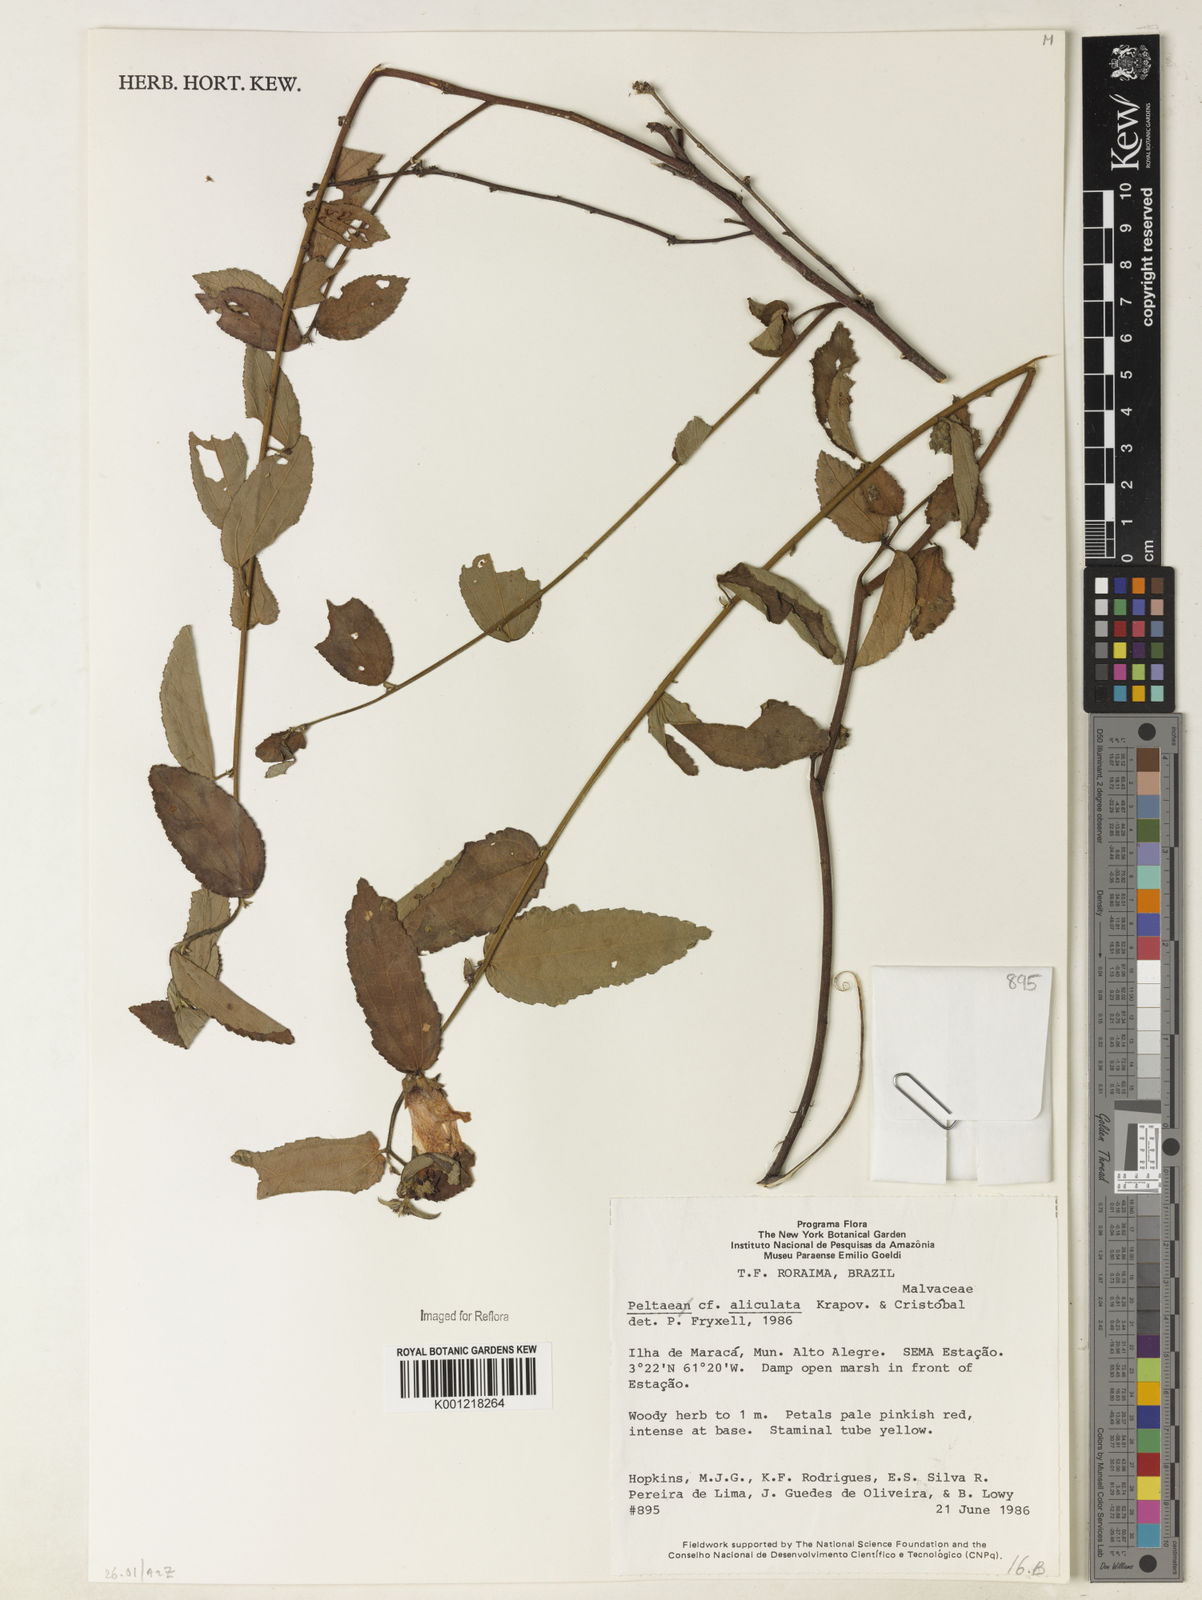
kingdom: Plantae
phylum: Tracheophyta
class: Magnoliopsida
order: Malvales
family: Malvaceae
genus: Peltaea
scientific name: Peltaea
